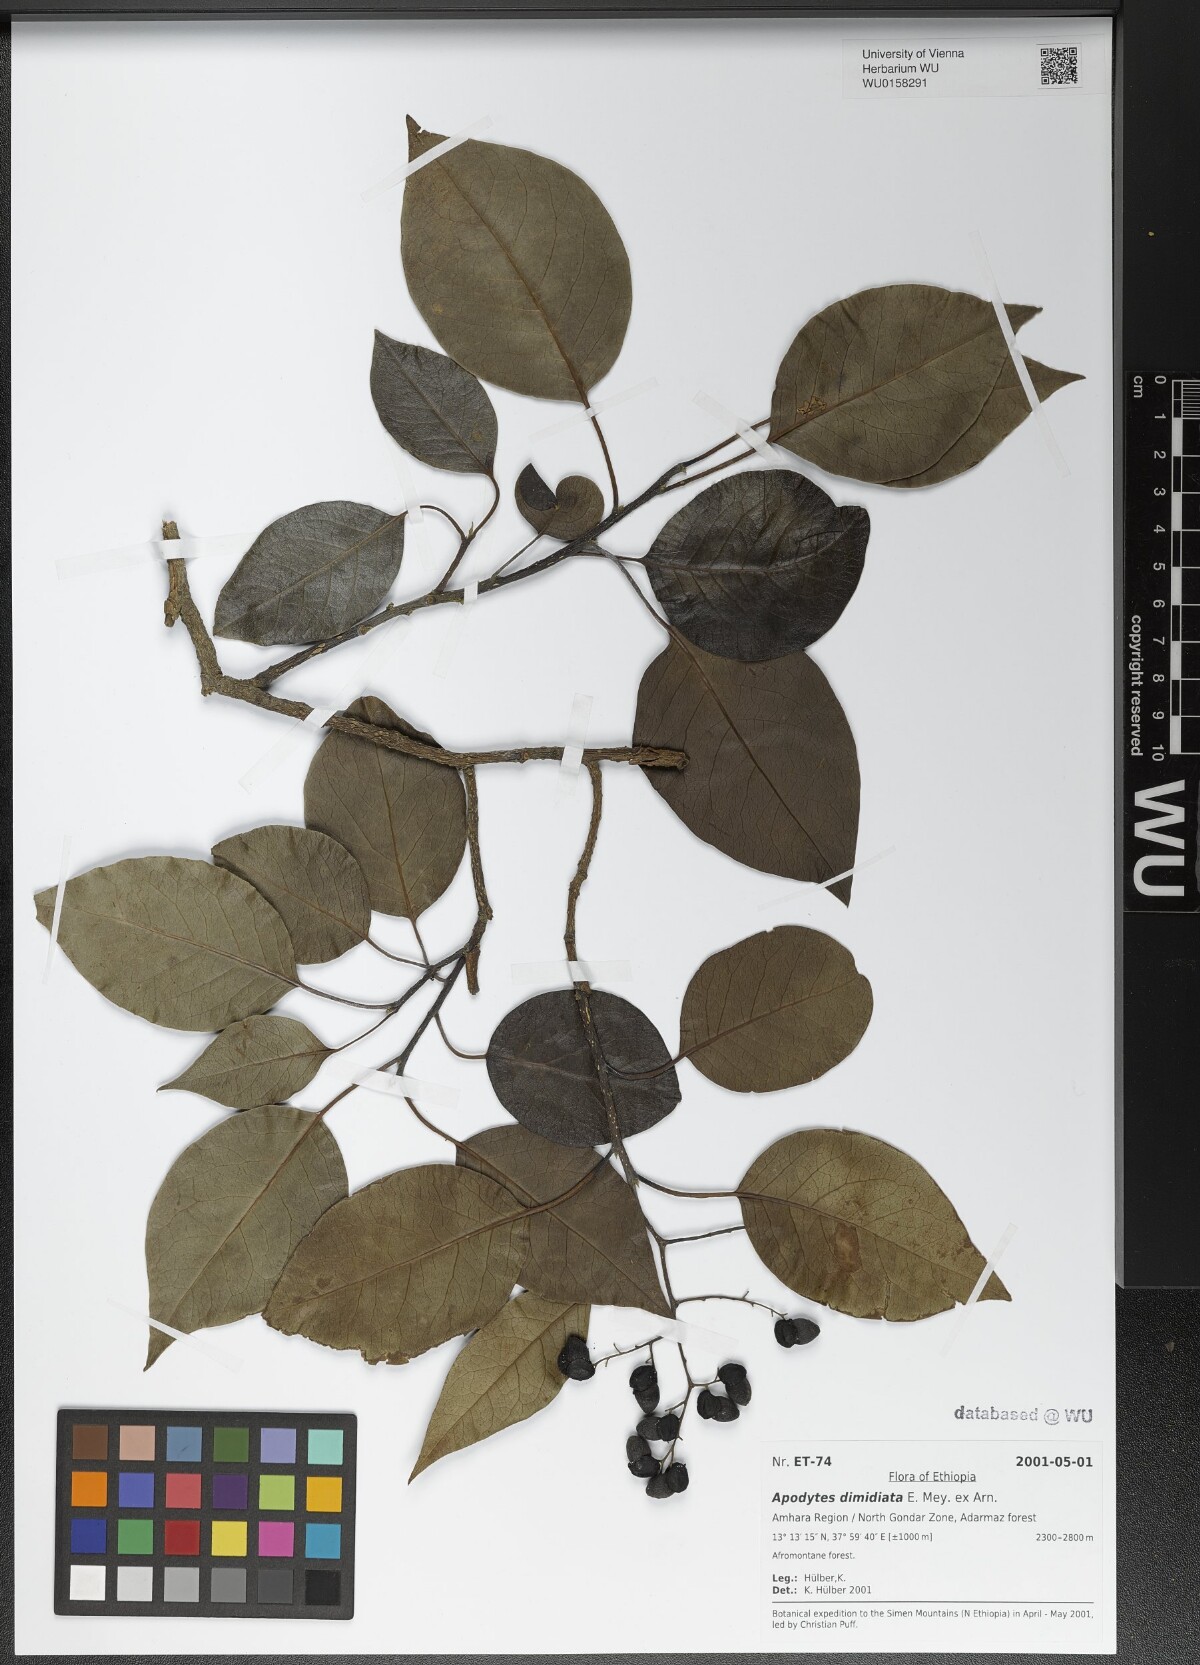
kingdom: Plantae
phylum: Tracheophyta
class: Magnoliopsida
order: Metteniusales
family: Metteniusaceae
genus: Apodytes
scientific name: Apodytes dimidiata
